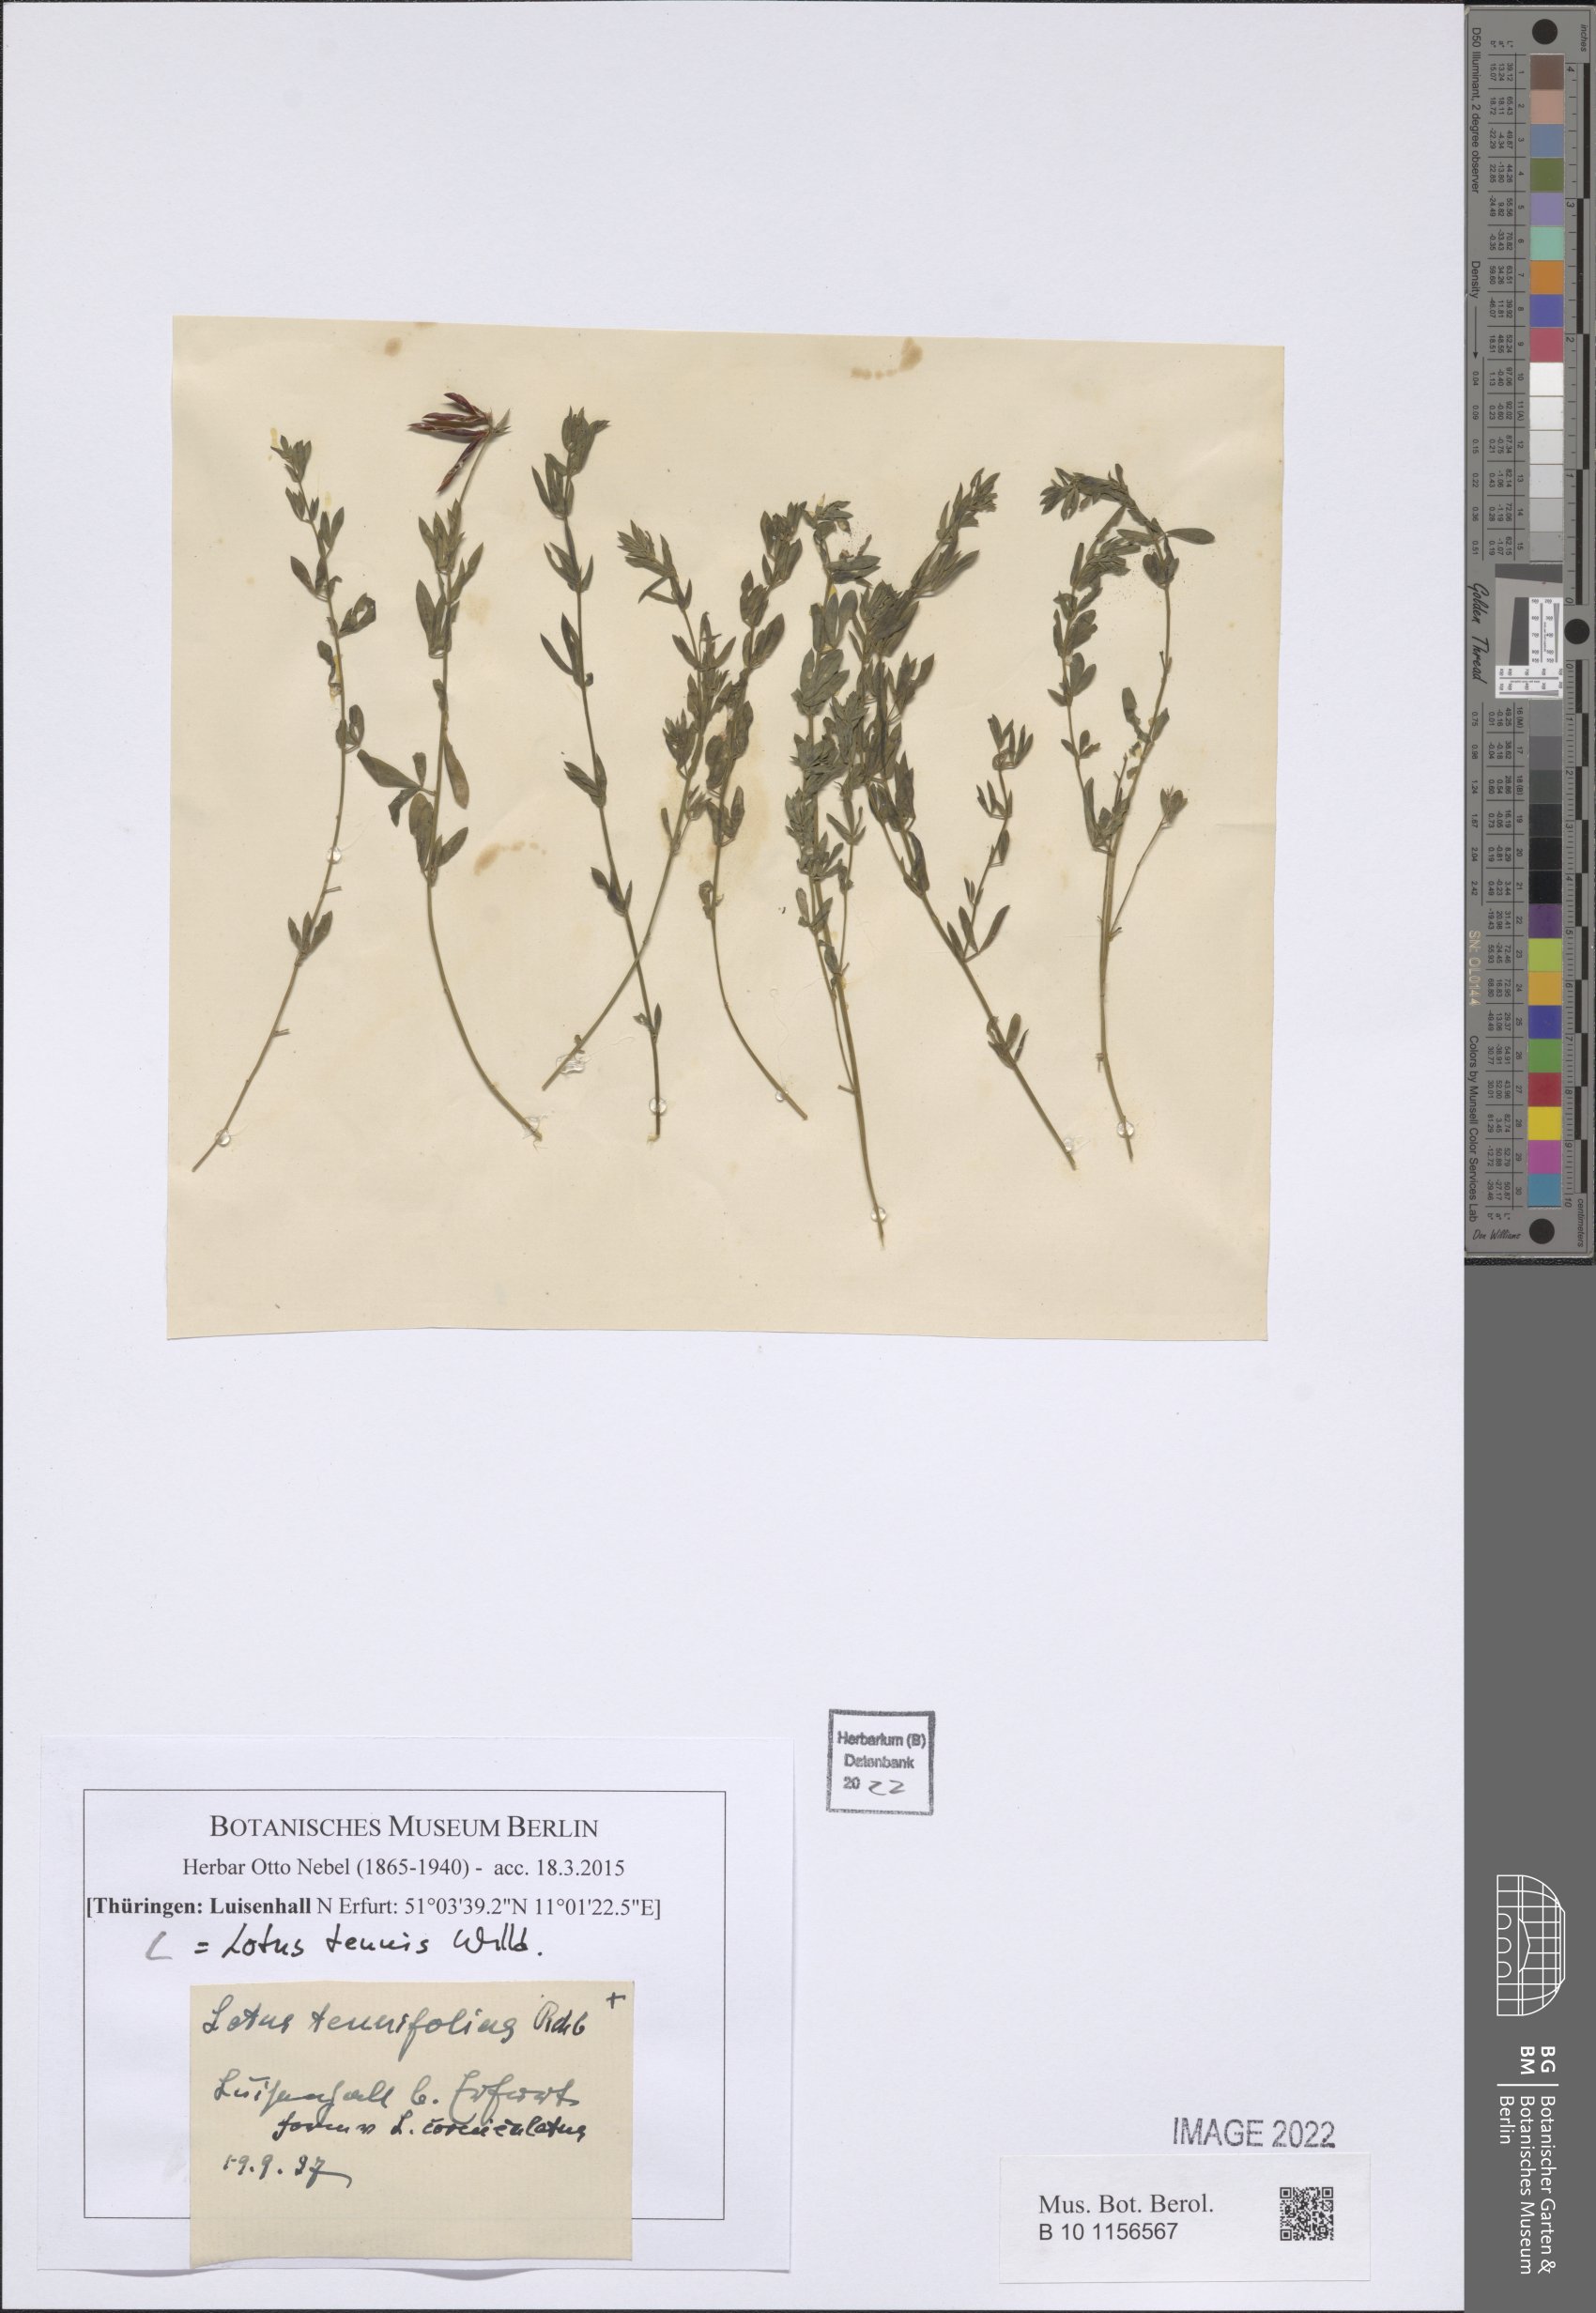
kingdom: Plantae
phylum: Tracheophyta
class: Magnoliopsida
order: Fabales
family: Fabaceae
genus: Lotus
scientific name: Lotus tenuis
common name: Narrow-leaved bird's-foot-trefoil
